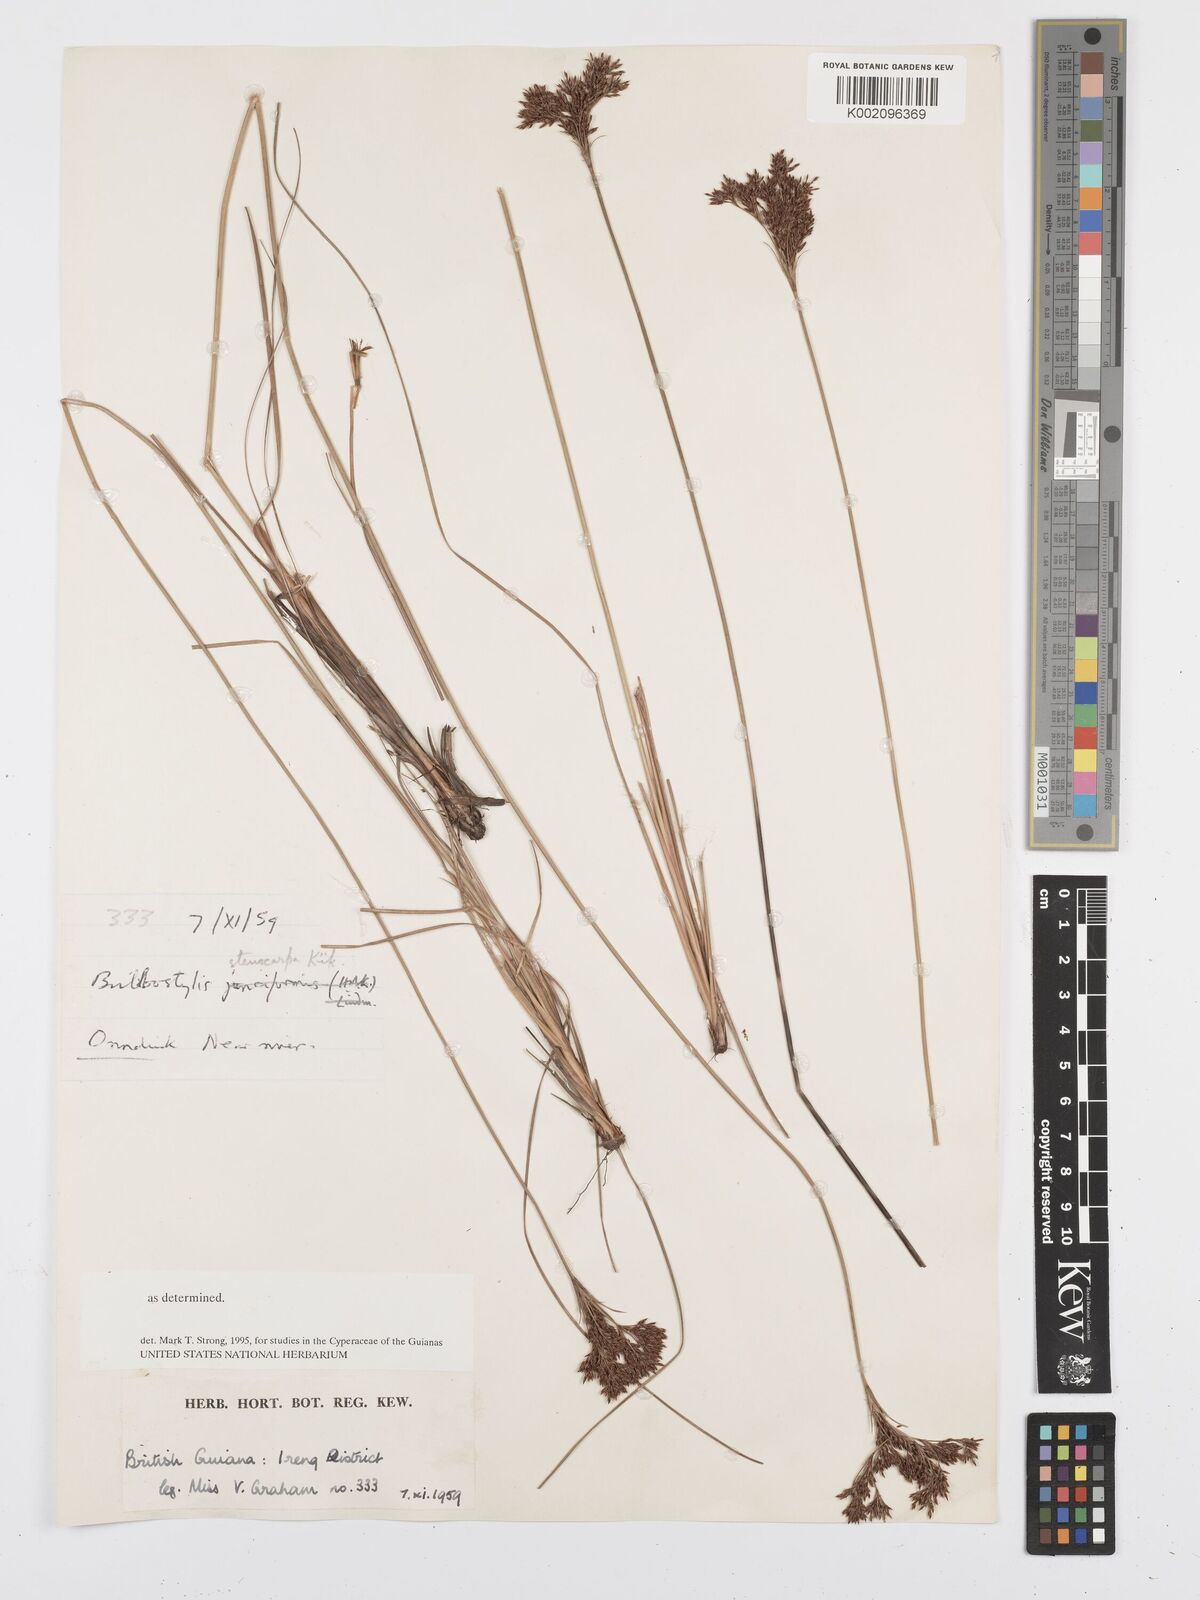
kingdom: Plantae
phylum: Tracheophyta
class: Liliopsida
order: Poales
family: Cyperaceae
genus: Bulbostylis
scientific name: Bulbostylis stenocarpa
